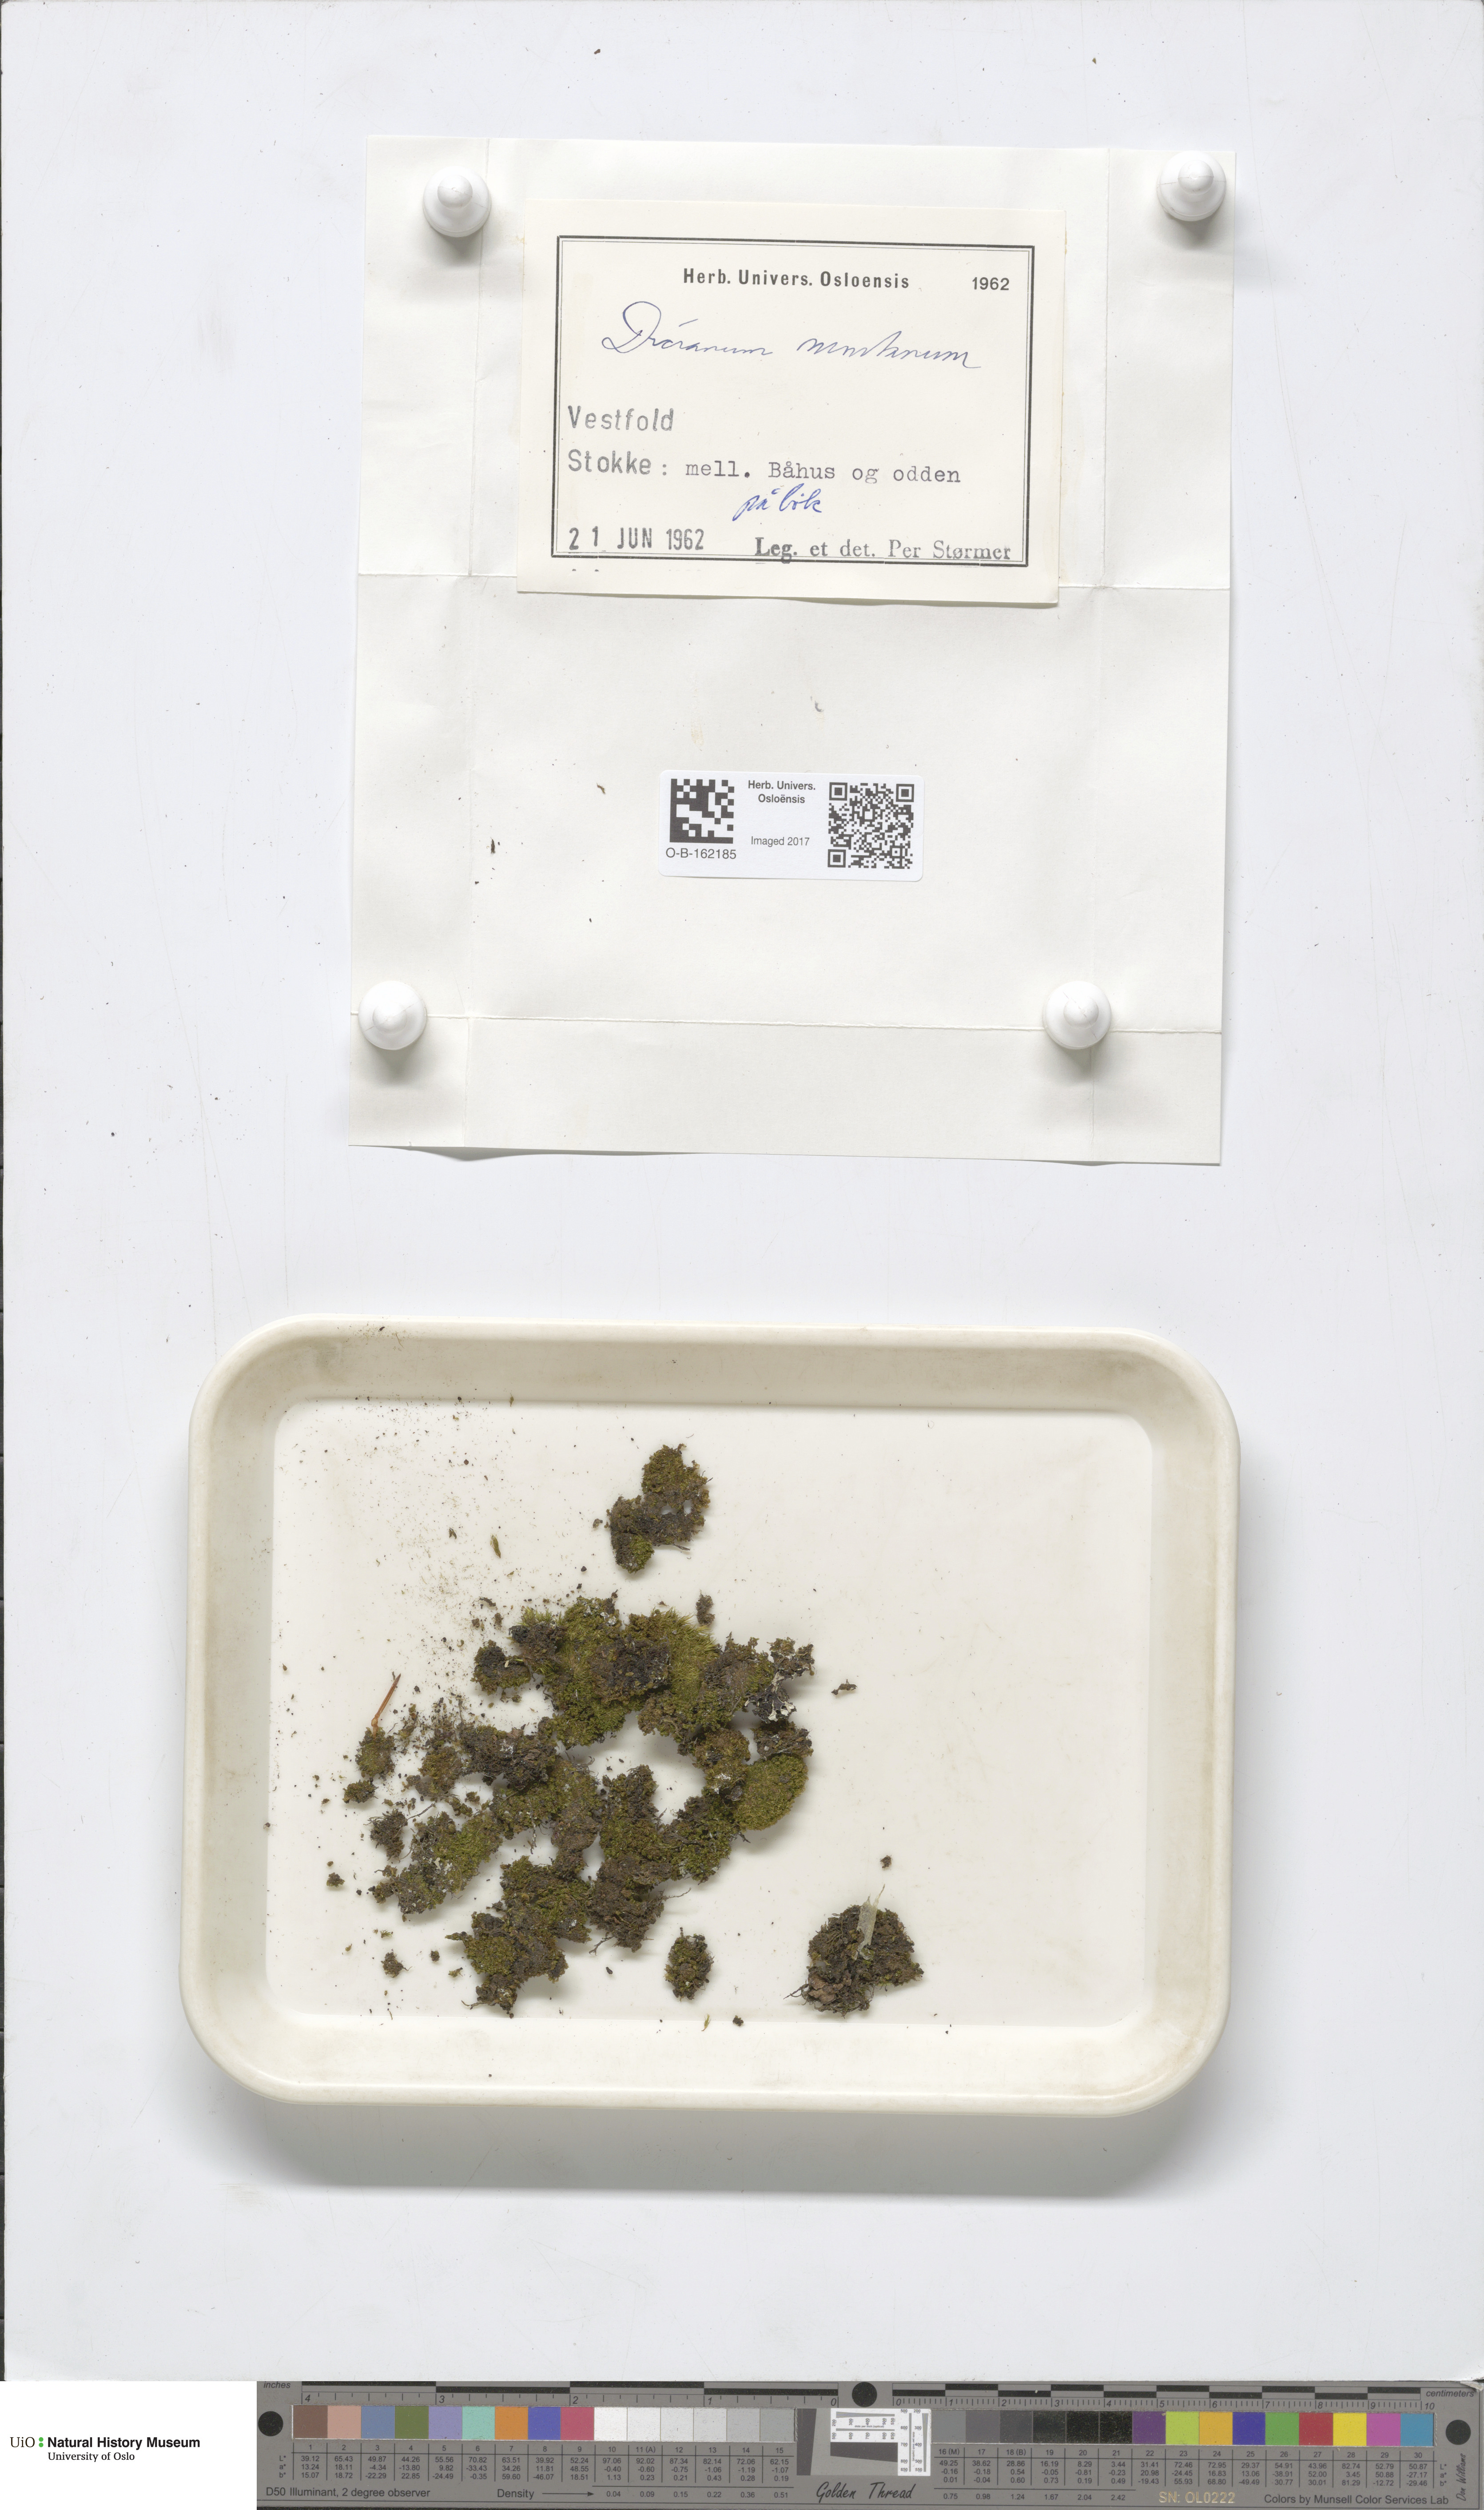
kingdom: Plantae
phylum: Bryophyta
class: Bryopsida
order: Dicranales
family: Dicranaceae
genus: Orthodicranum
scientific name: Orthodicranum montanum
